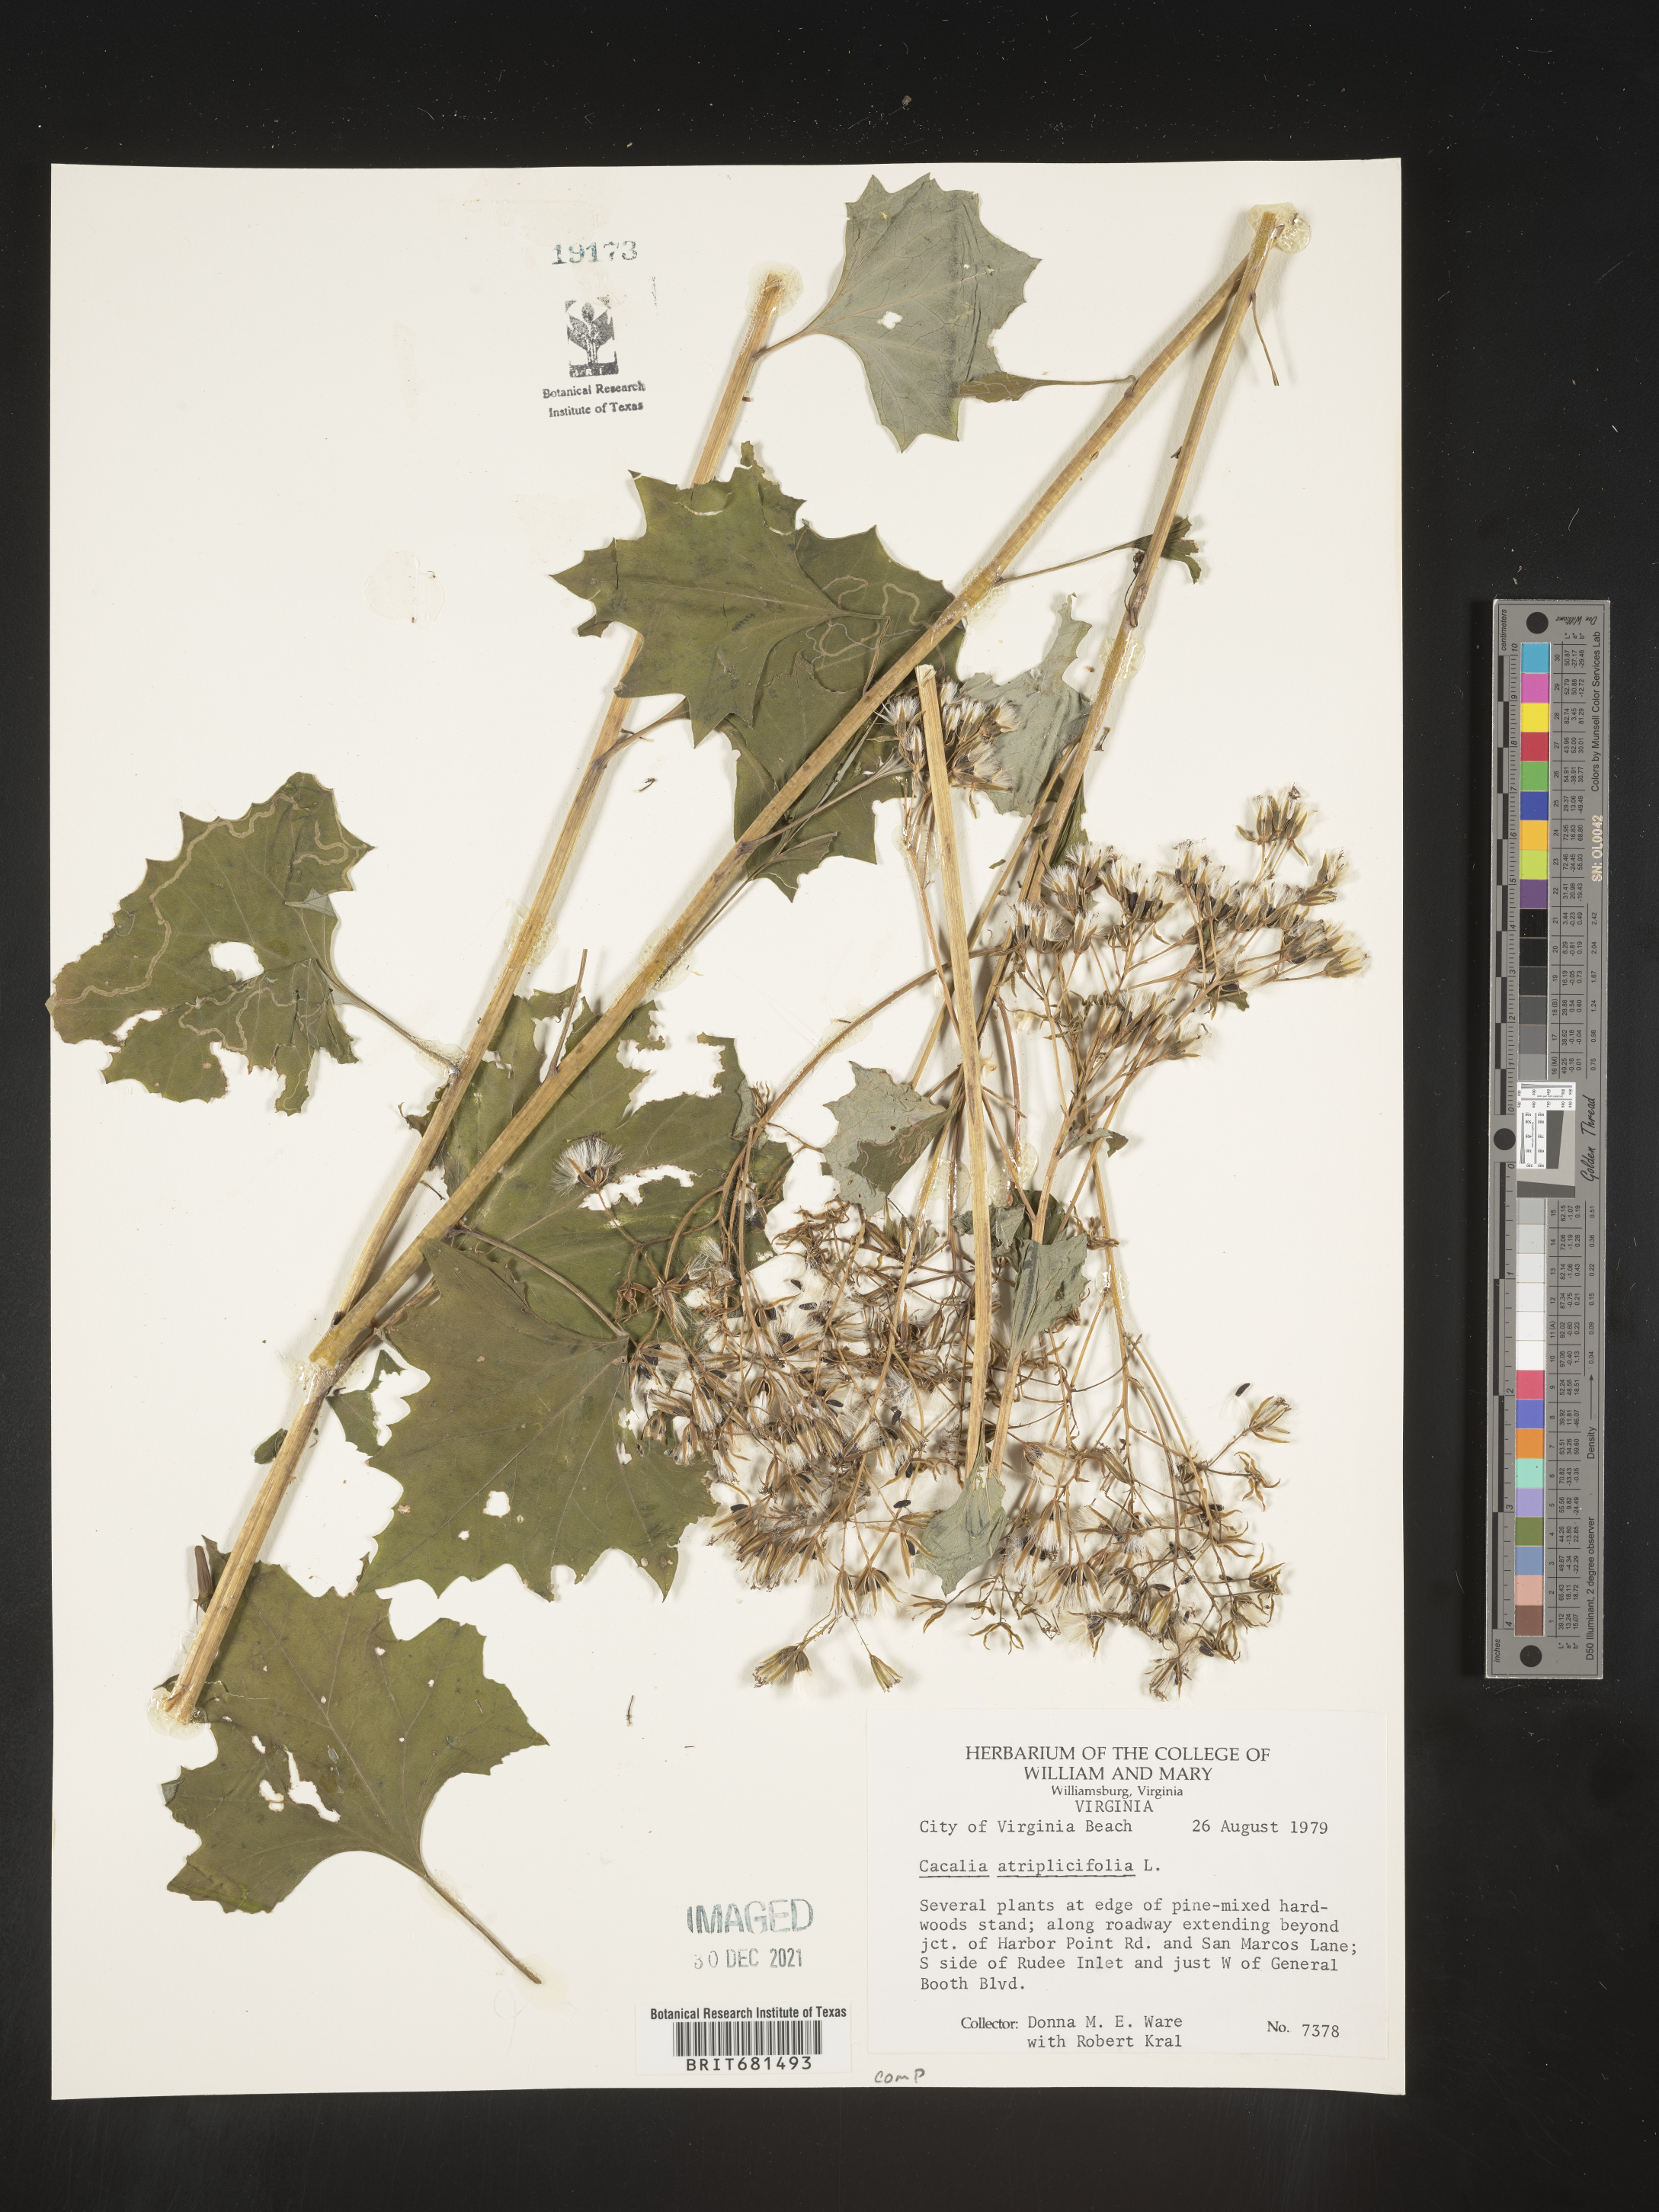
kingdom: Plantae
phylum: Tracheophyta
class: Magnoliopsida
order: Asterales
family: Asteraceae
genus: Arnoglossum
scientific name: Arnoglossum atriplicifolium
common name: Pale indian-plantain
